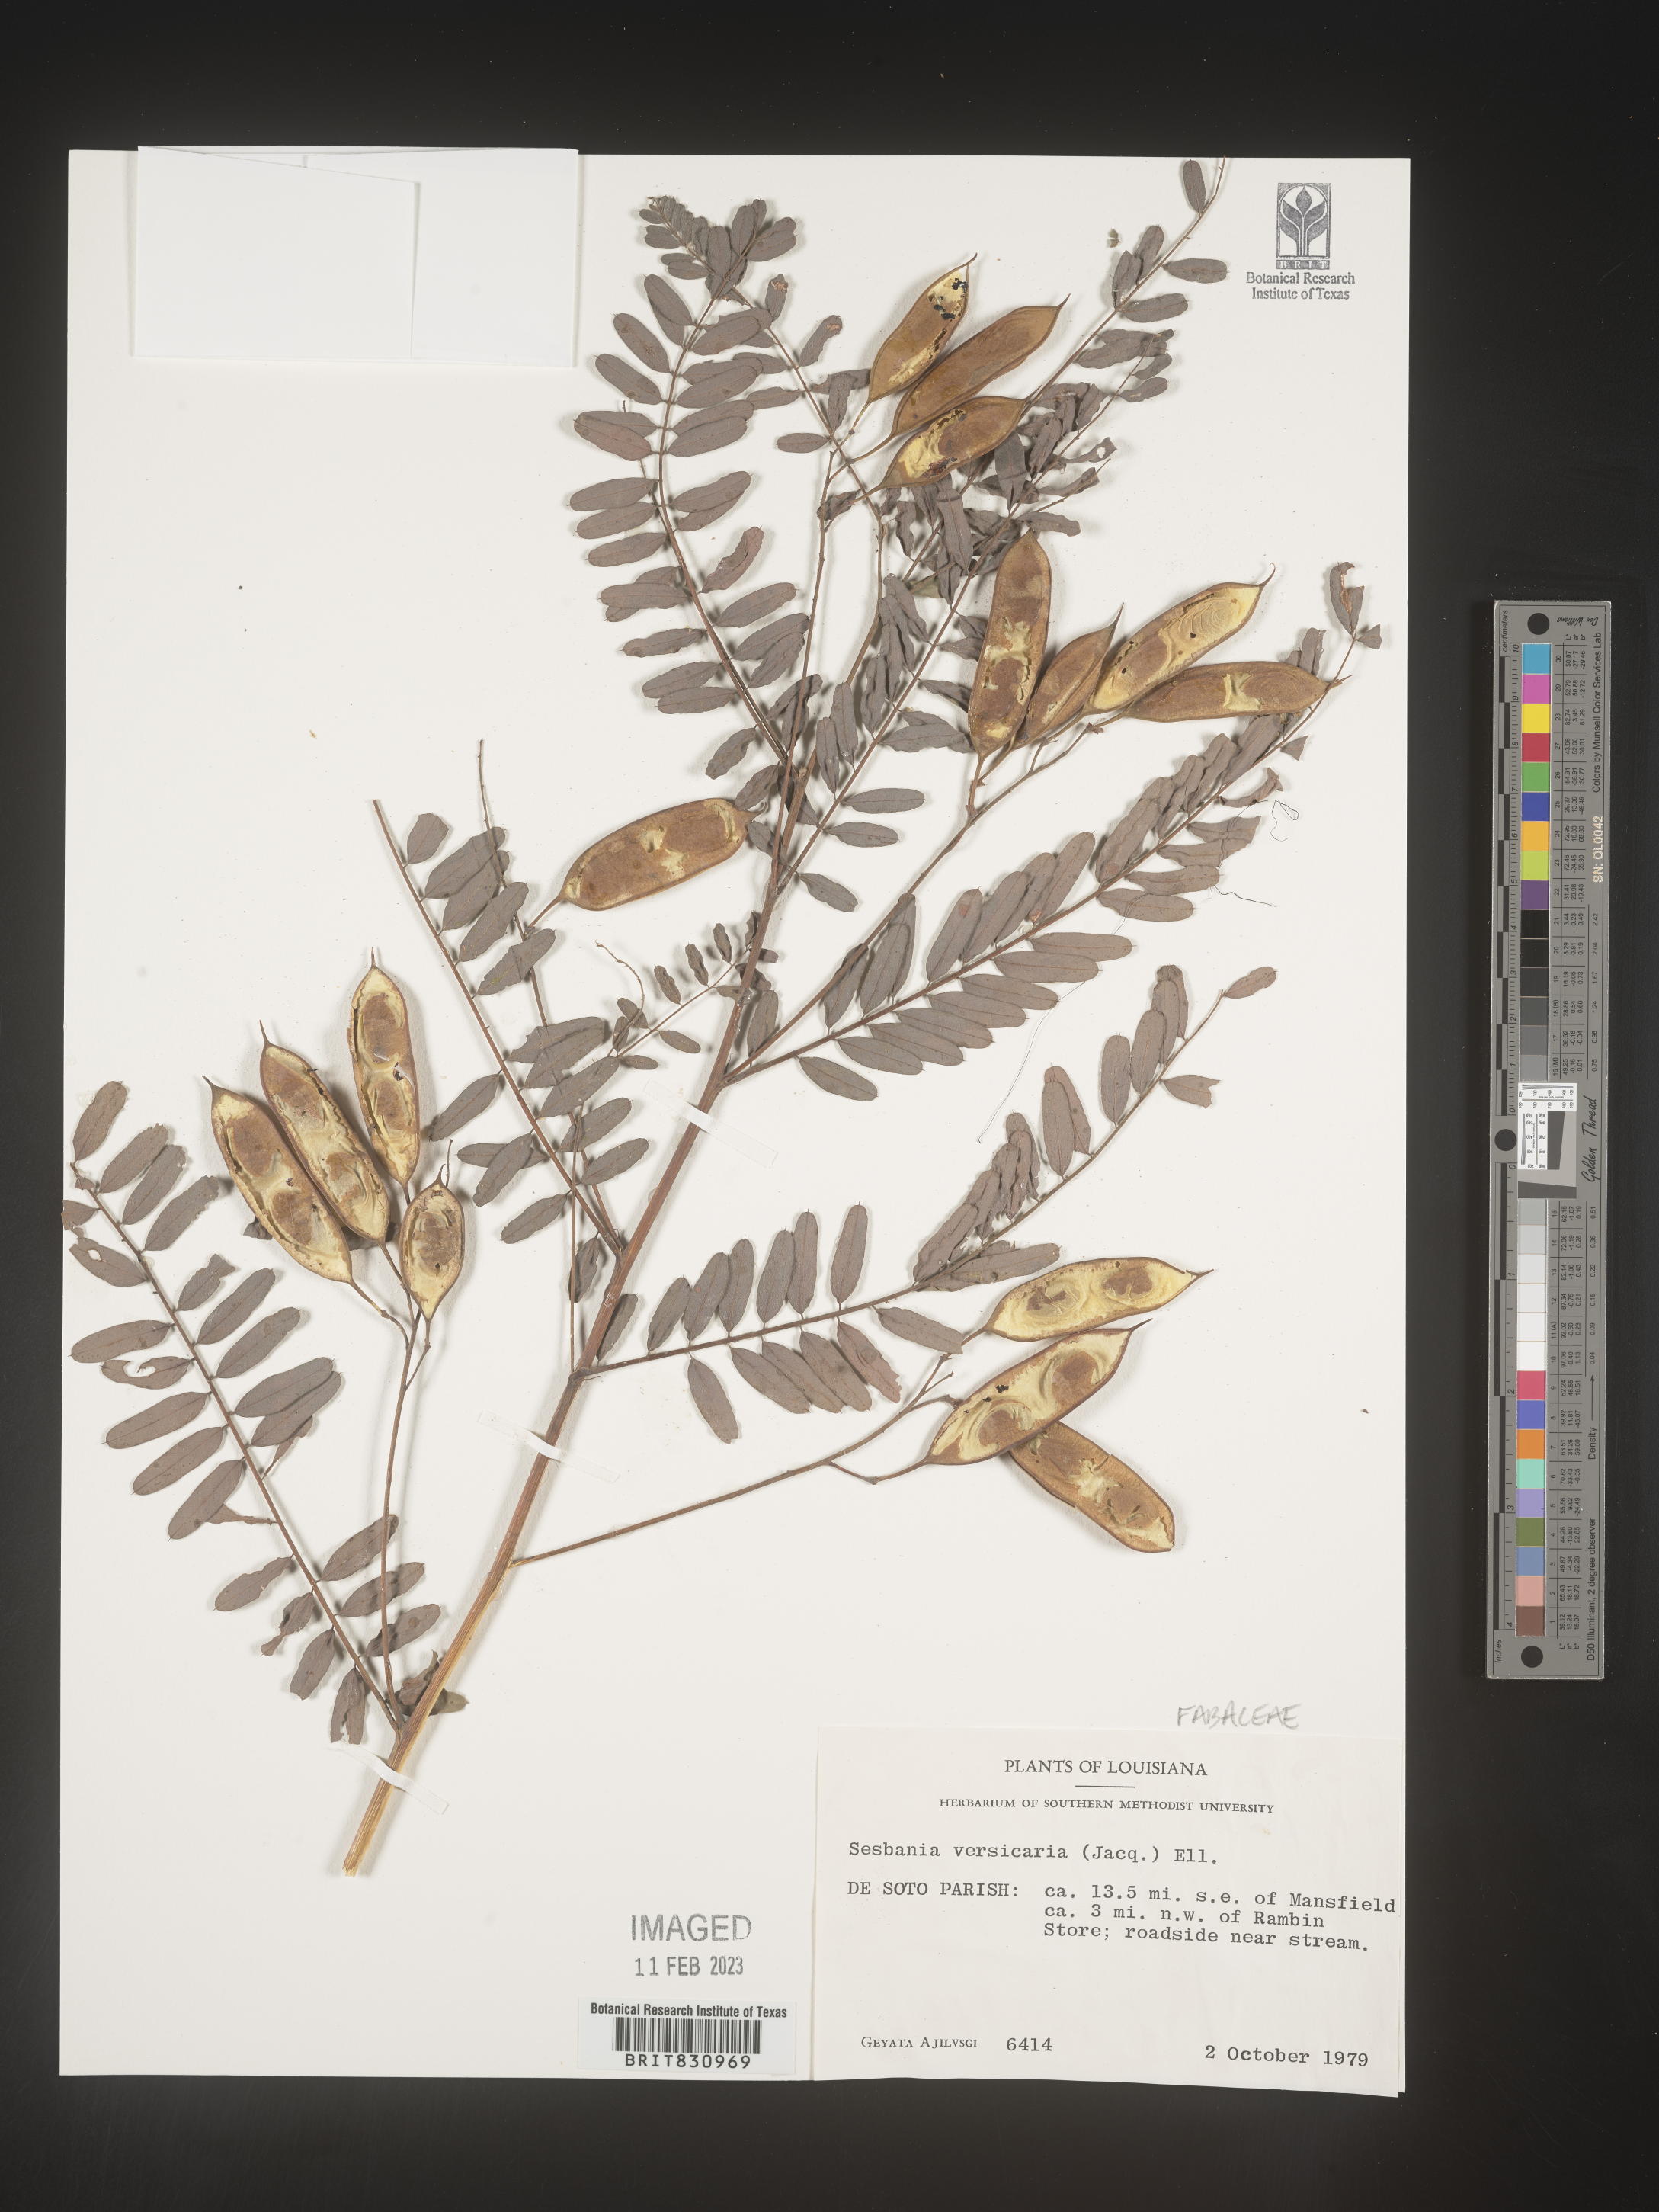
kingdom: Plantae
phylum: Tracheophyta
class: Magnoliopsida
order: Fabales
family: Fabaceae
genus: Sesbania
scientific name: Sesbania vesicaria
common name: Bagpod
